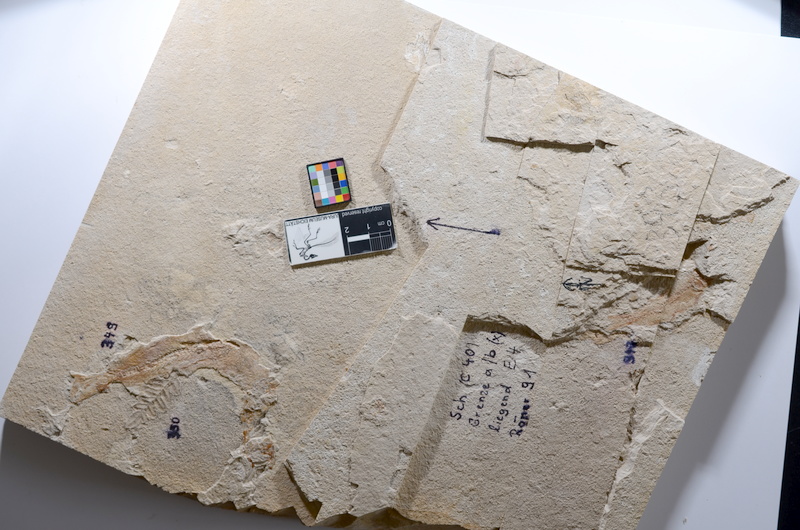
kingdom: Animalia
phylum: Chordata
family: Ascalaboidae
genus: Tharsis
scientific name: Tharsis dubius
